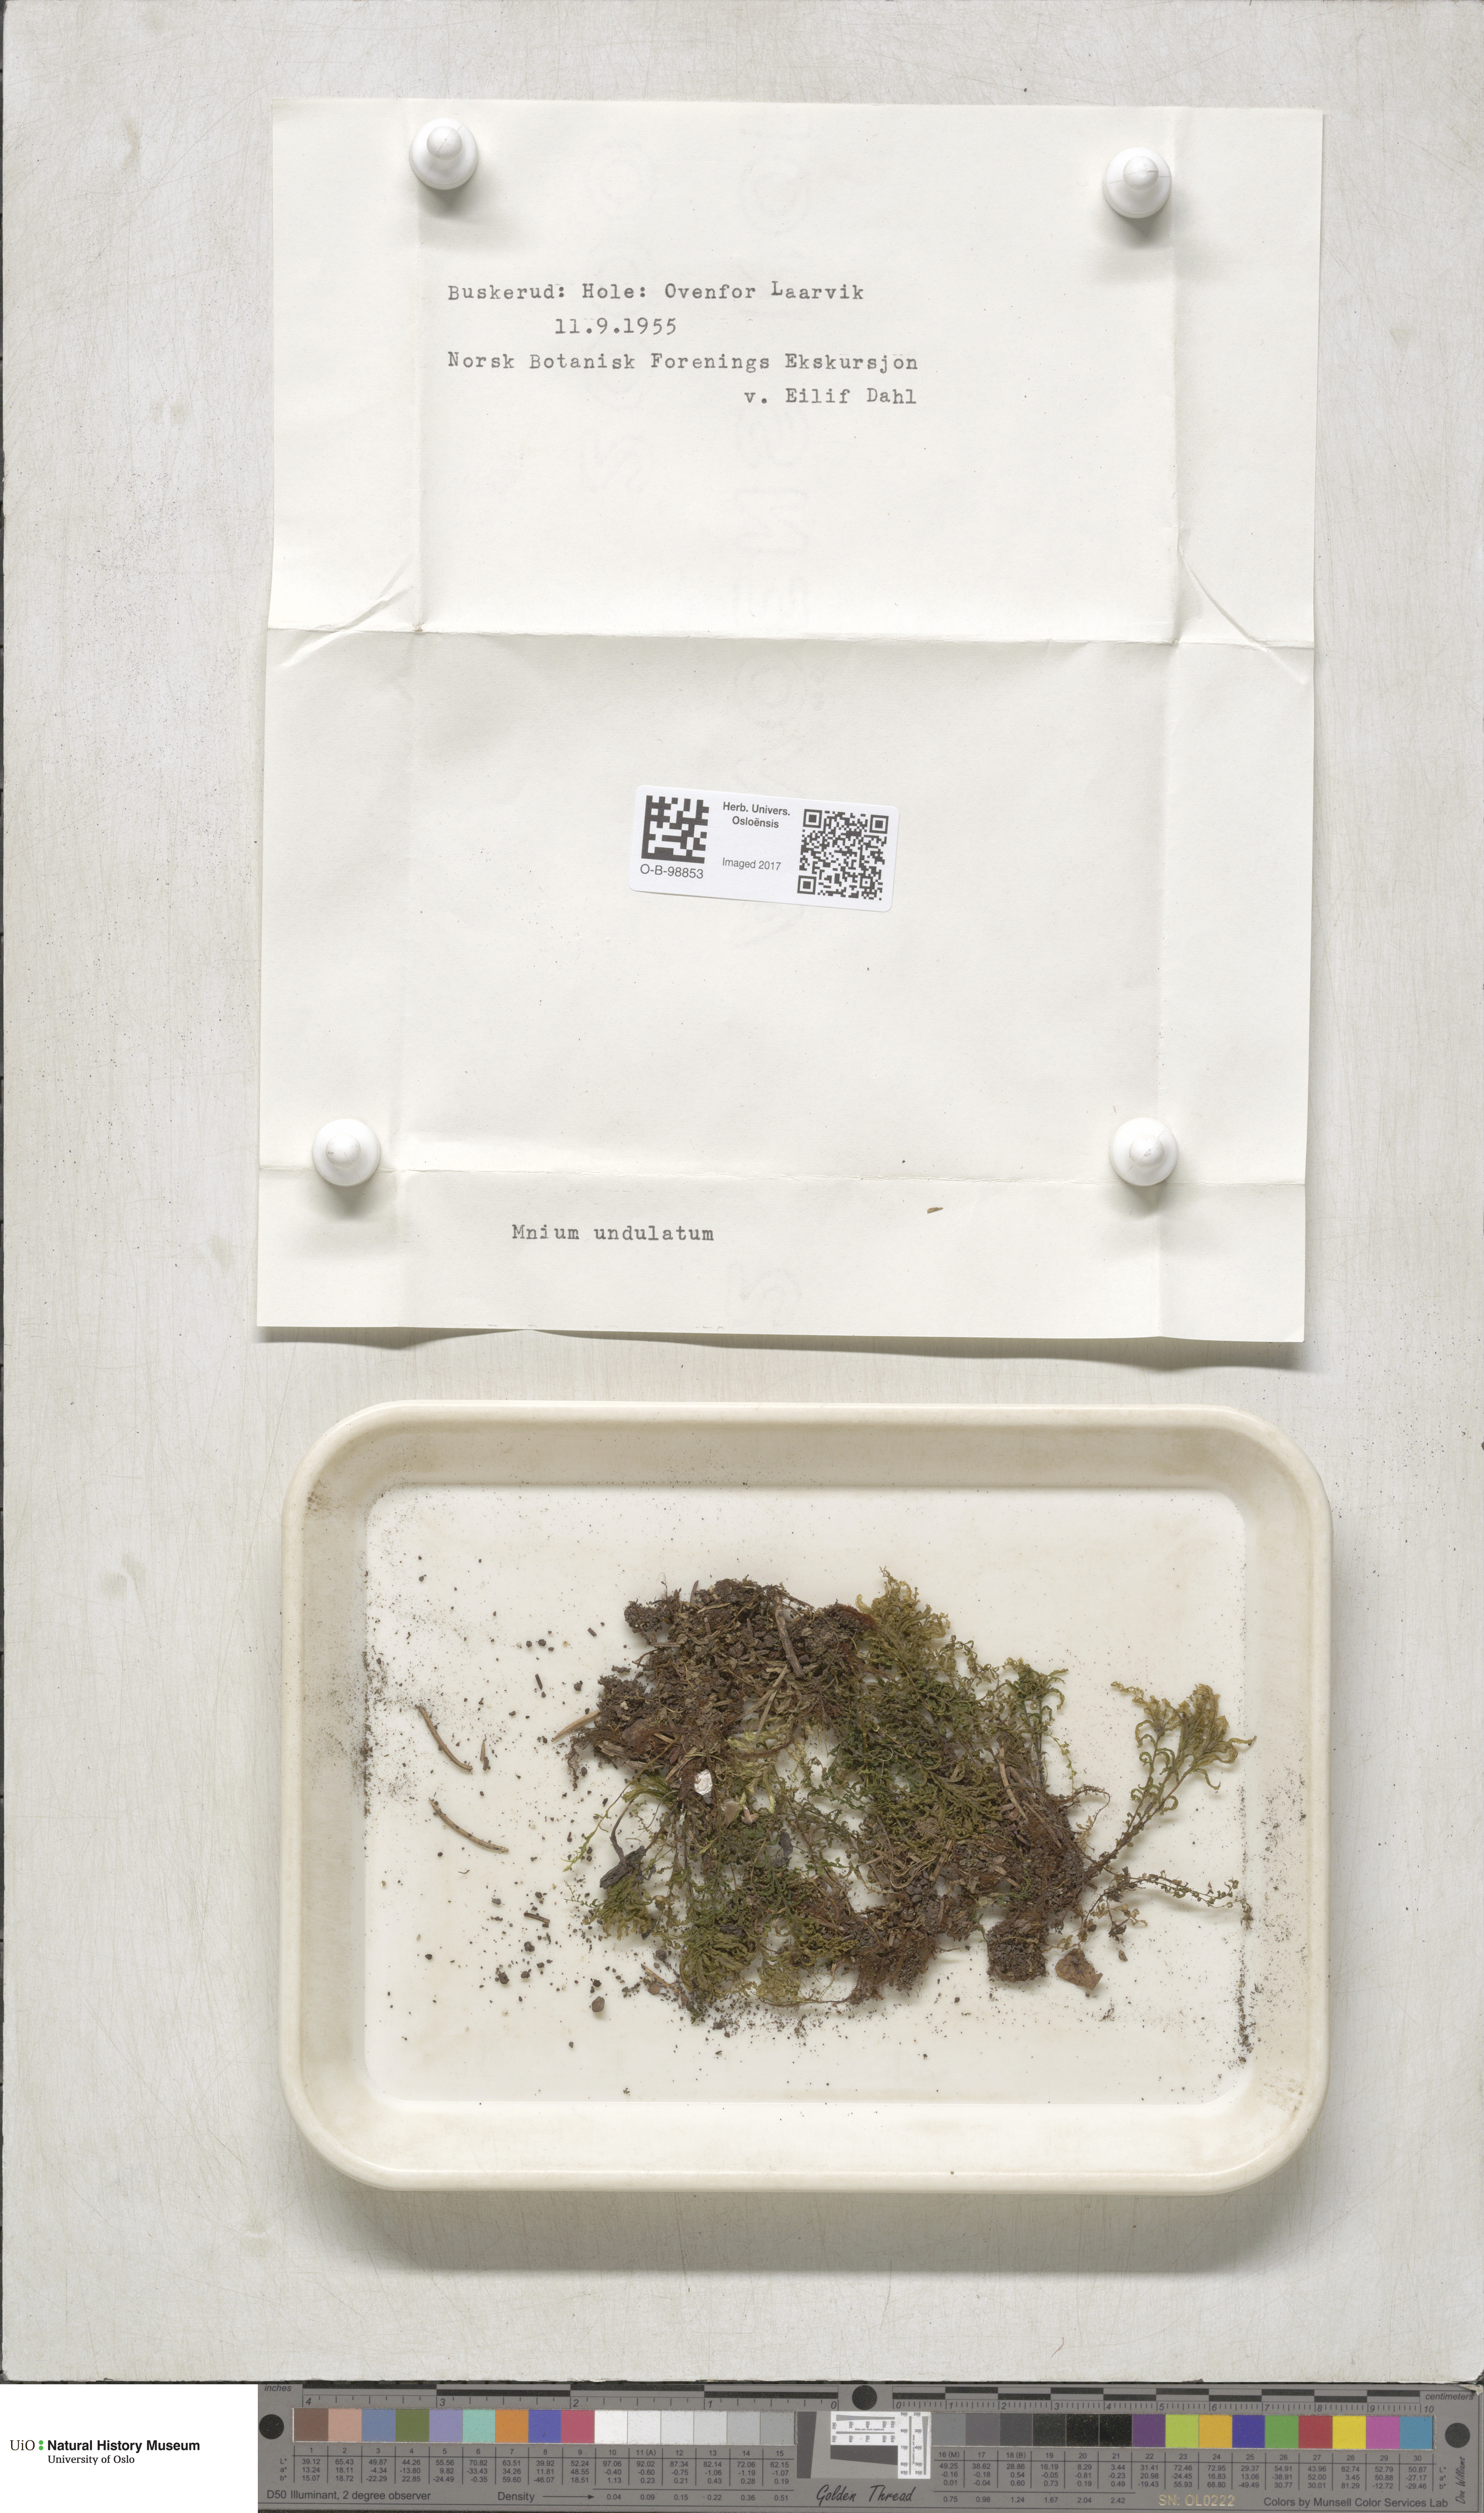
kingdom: Plantae
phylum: Bryophyta
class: Bryopsida
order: Bryales
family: Mniaceae
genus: Plagiomnium
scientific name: Plagiomnium undulatum
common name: Hart's-tongue thyme-moss
